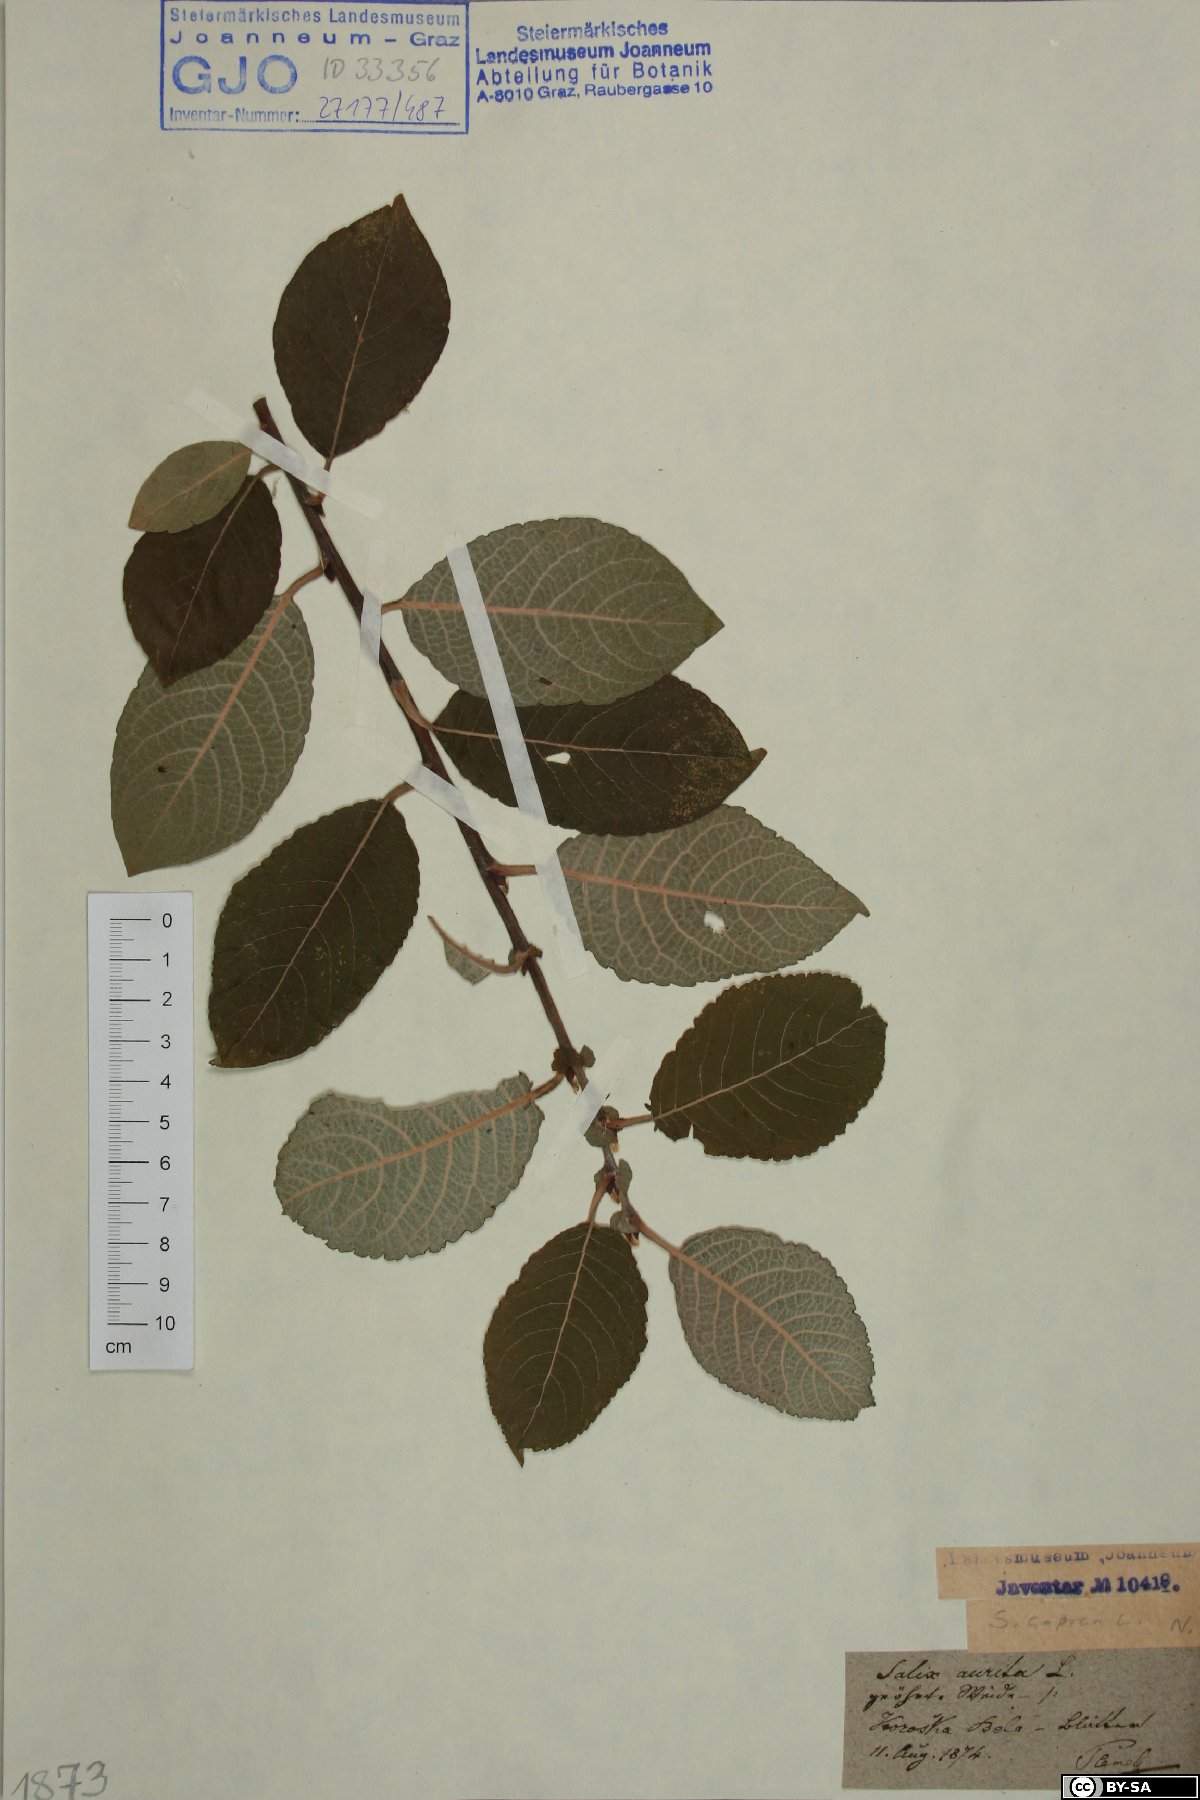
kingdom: Plantae
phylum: Tracheophyta
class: Magnoliopsida
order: Malpighiales
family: Salicaceae
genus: Salix
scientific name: Salix caprea
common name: Goat willow
